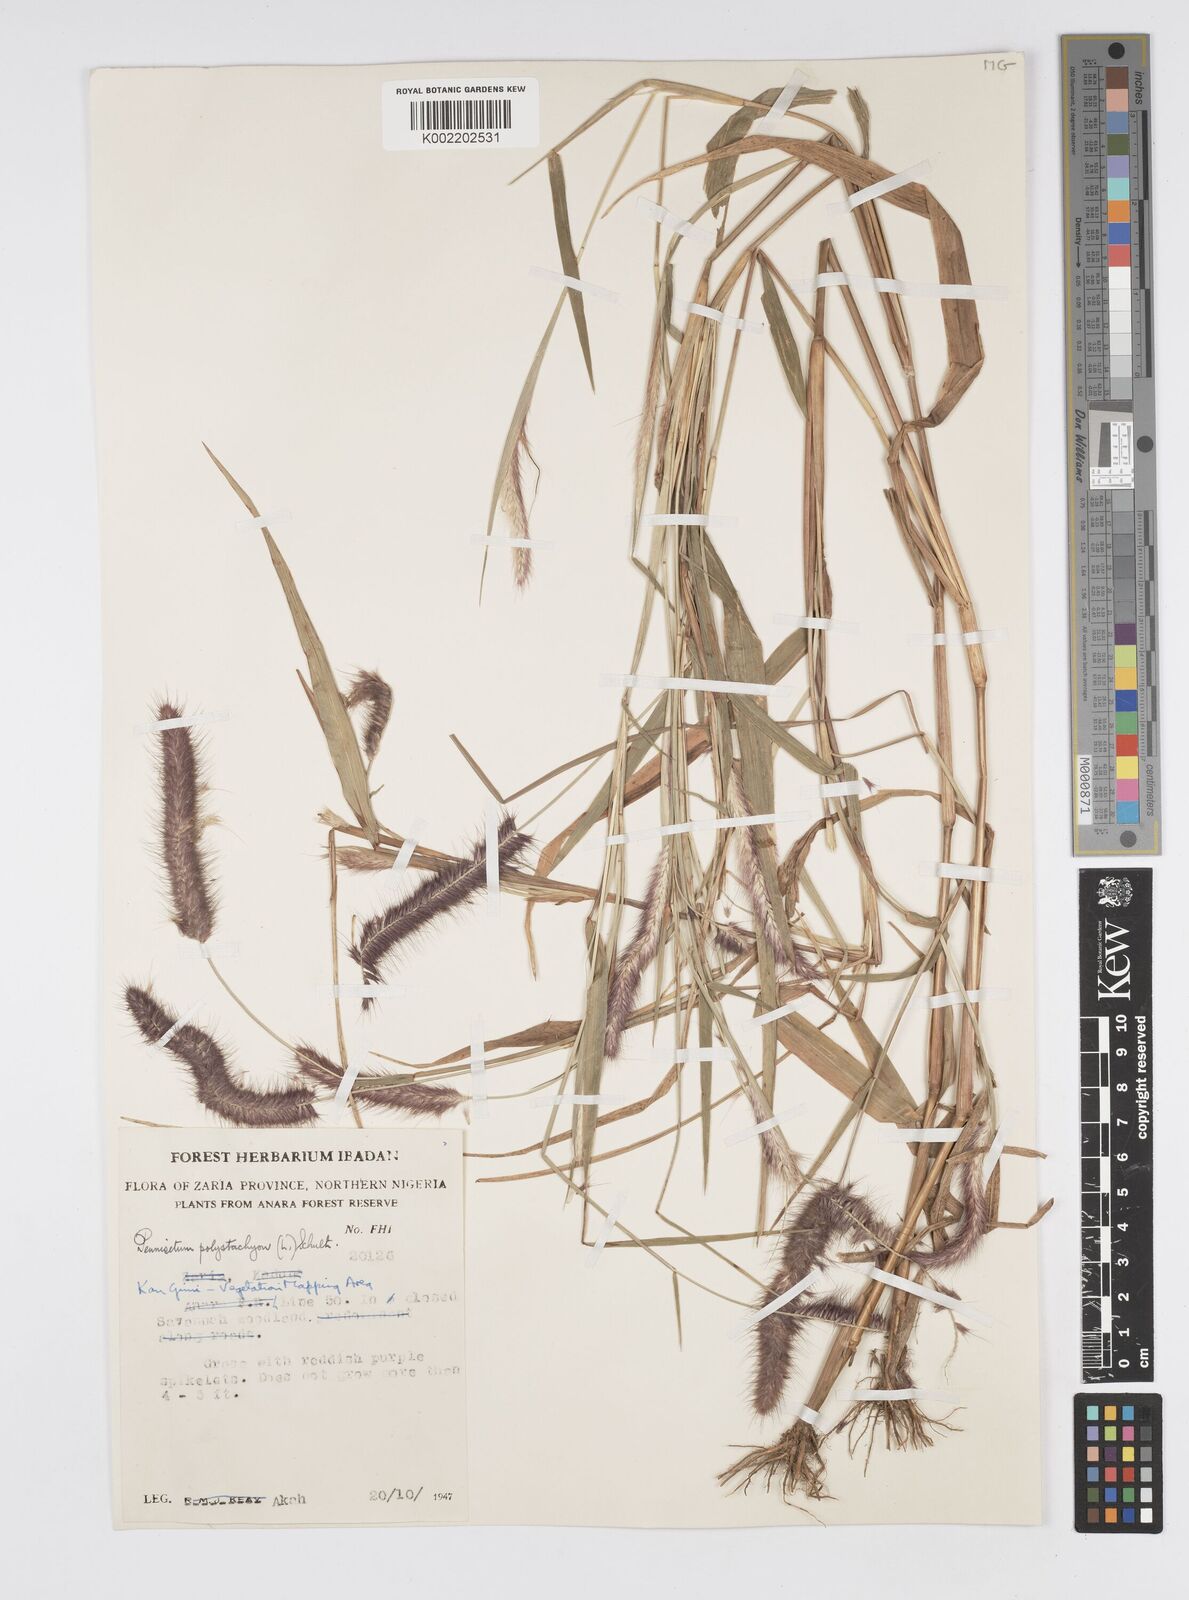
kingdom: Plantae
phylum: Tracheophyta
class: Liliopsida
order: Poales
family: Poaceae
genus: Setaria
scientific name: Setaria parviflora
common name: Knotroot bristle-grass
